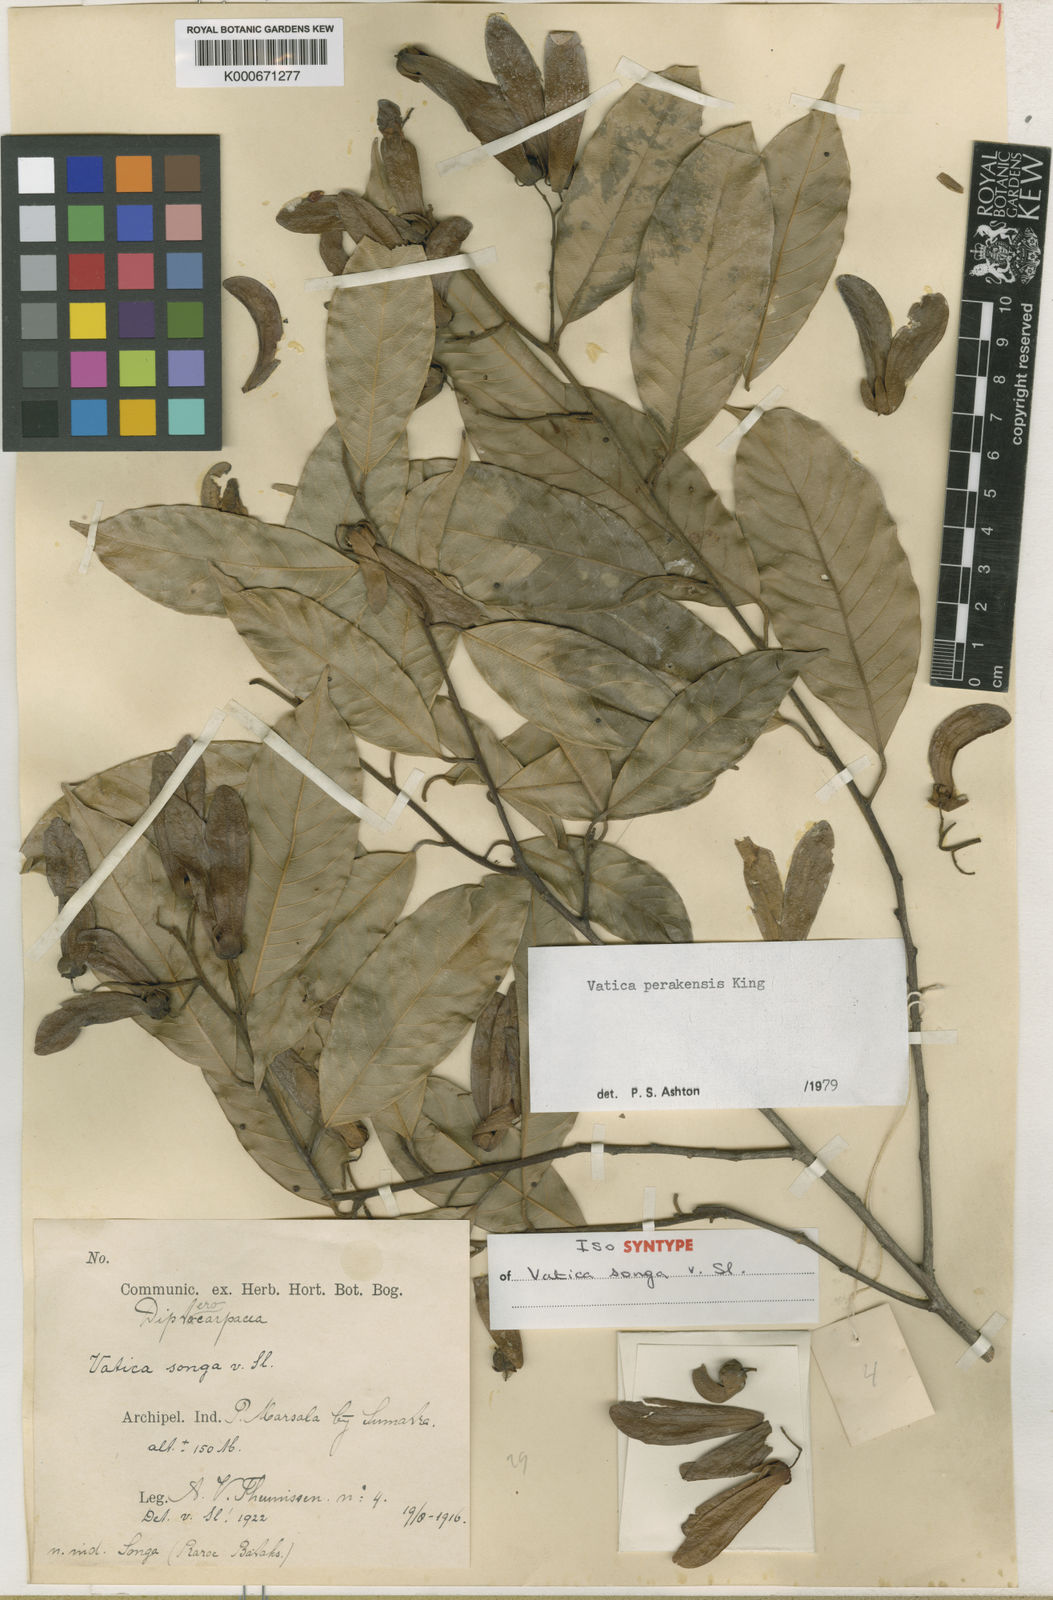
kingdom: Plantae
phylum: Tracheophyta
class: Magnoliopsida
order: Malvales
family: Dipterocarpaceae
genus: Vatica
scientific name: Vatica perakensis
